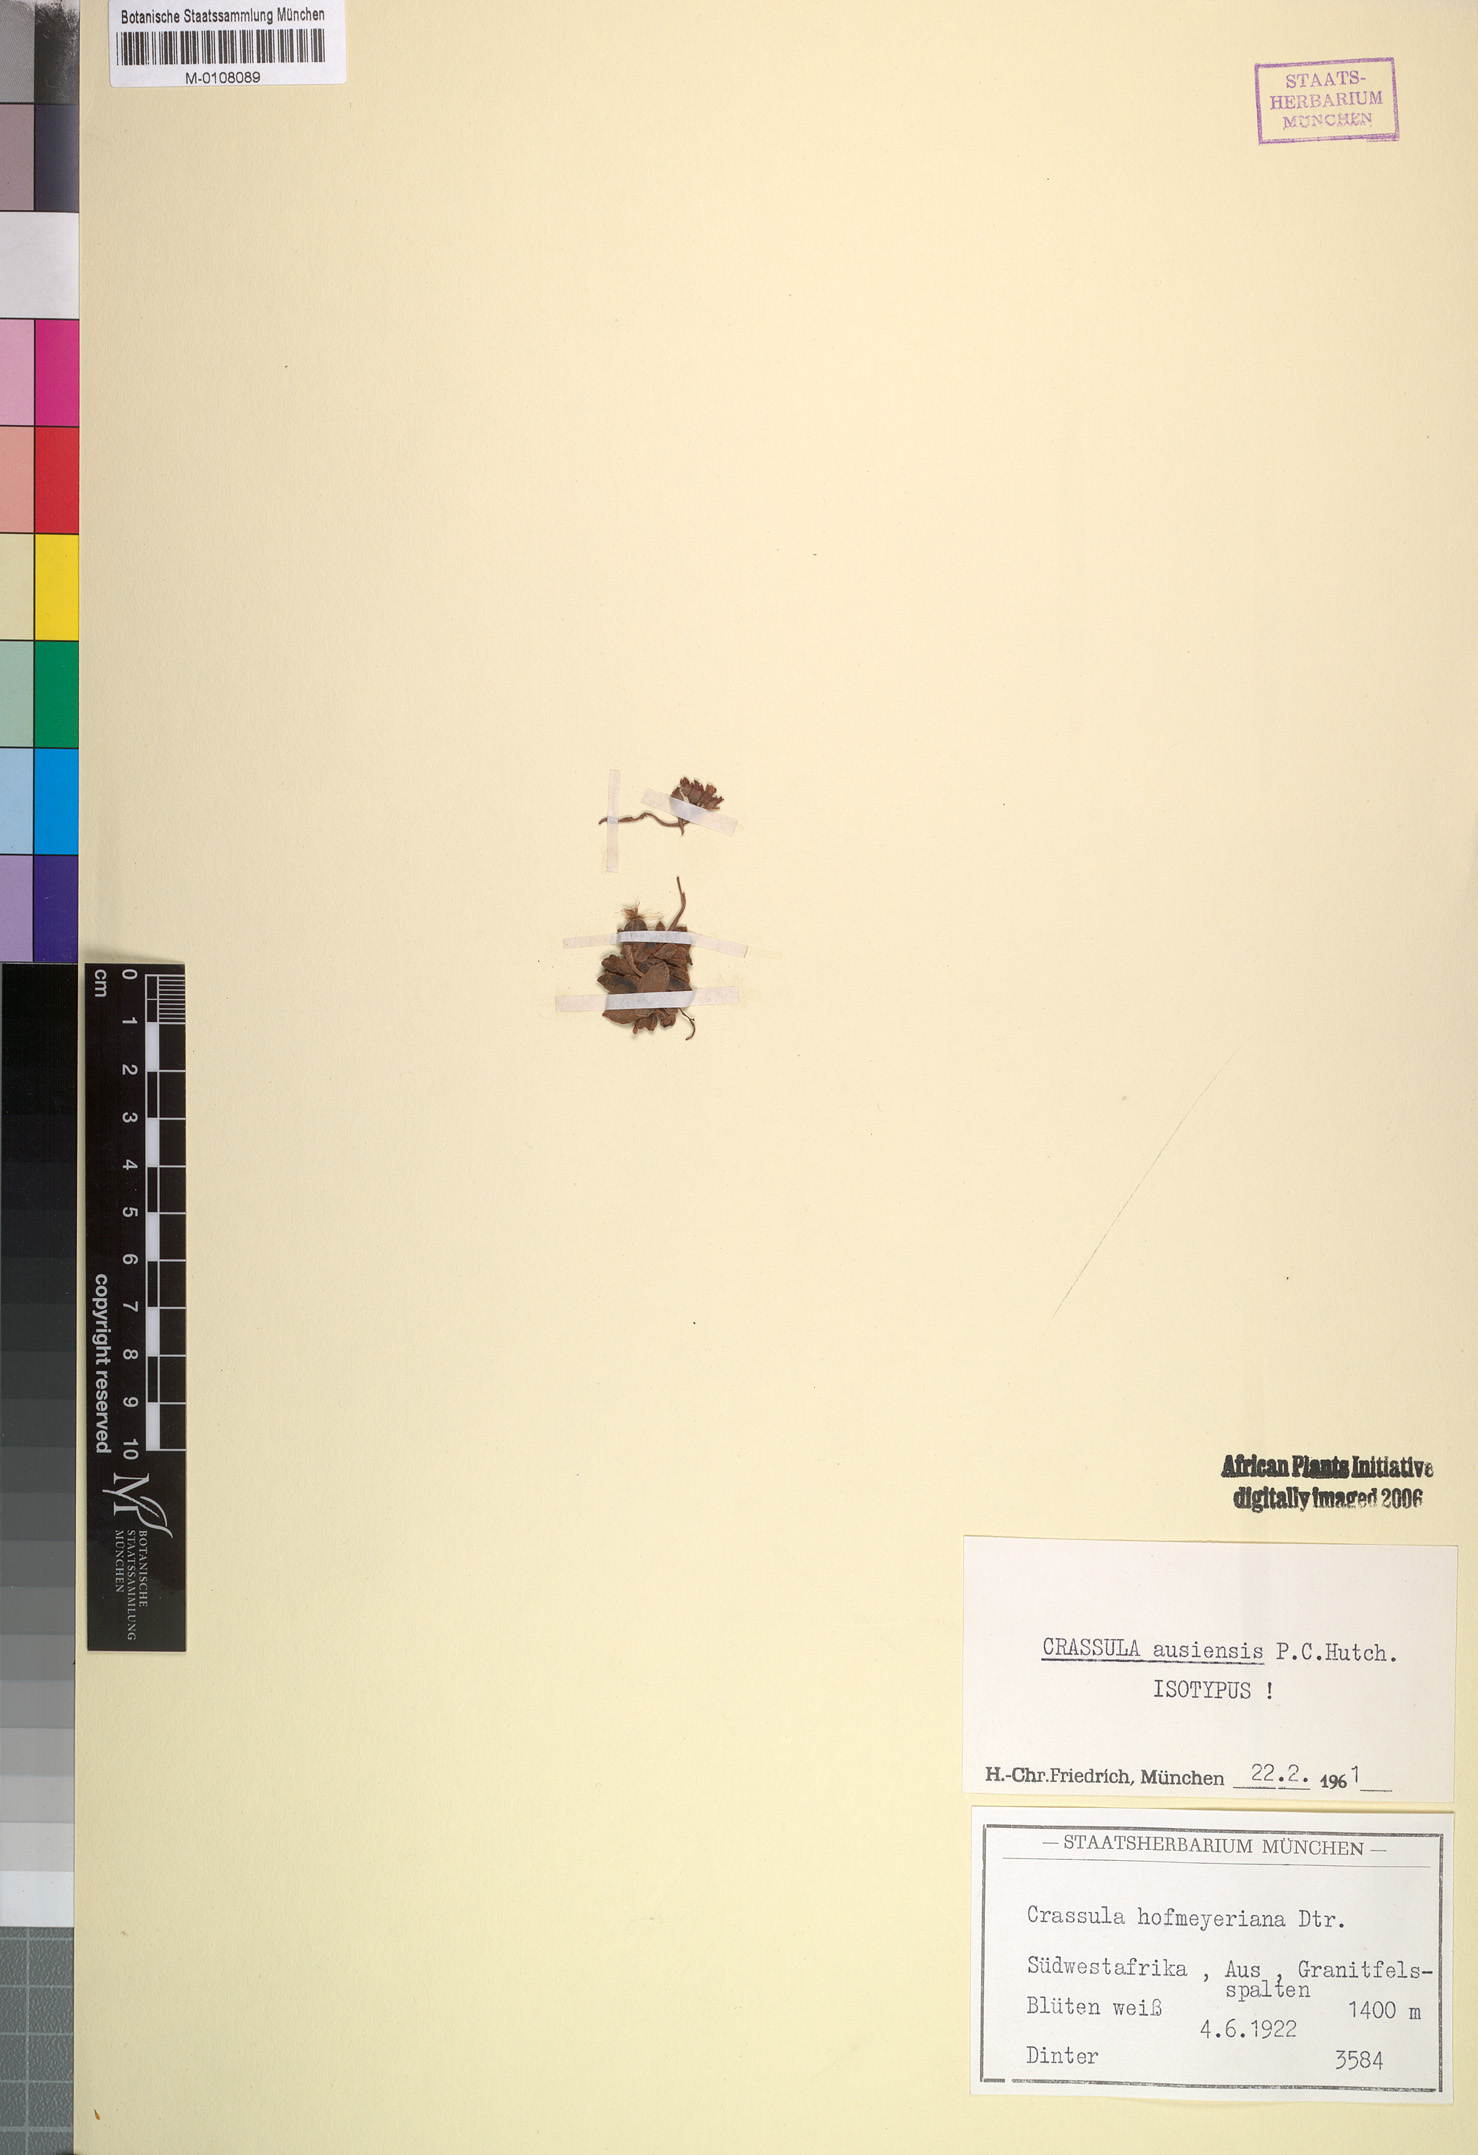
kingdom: Plantae
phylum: Tracheophyta
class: Magnoliopsida
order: Saxifragales
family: Crassulaceae
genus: Crassula
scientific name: Crassula ausensis
